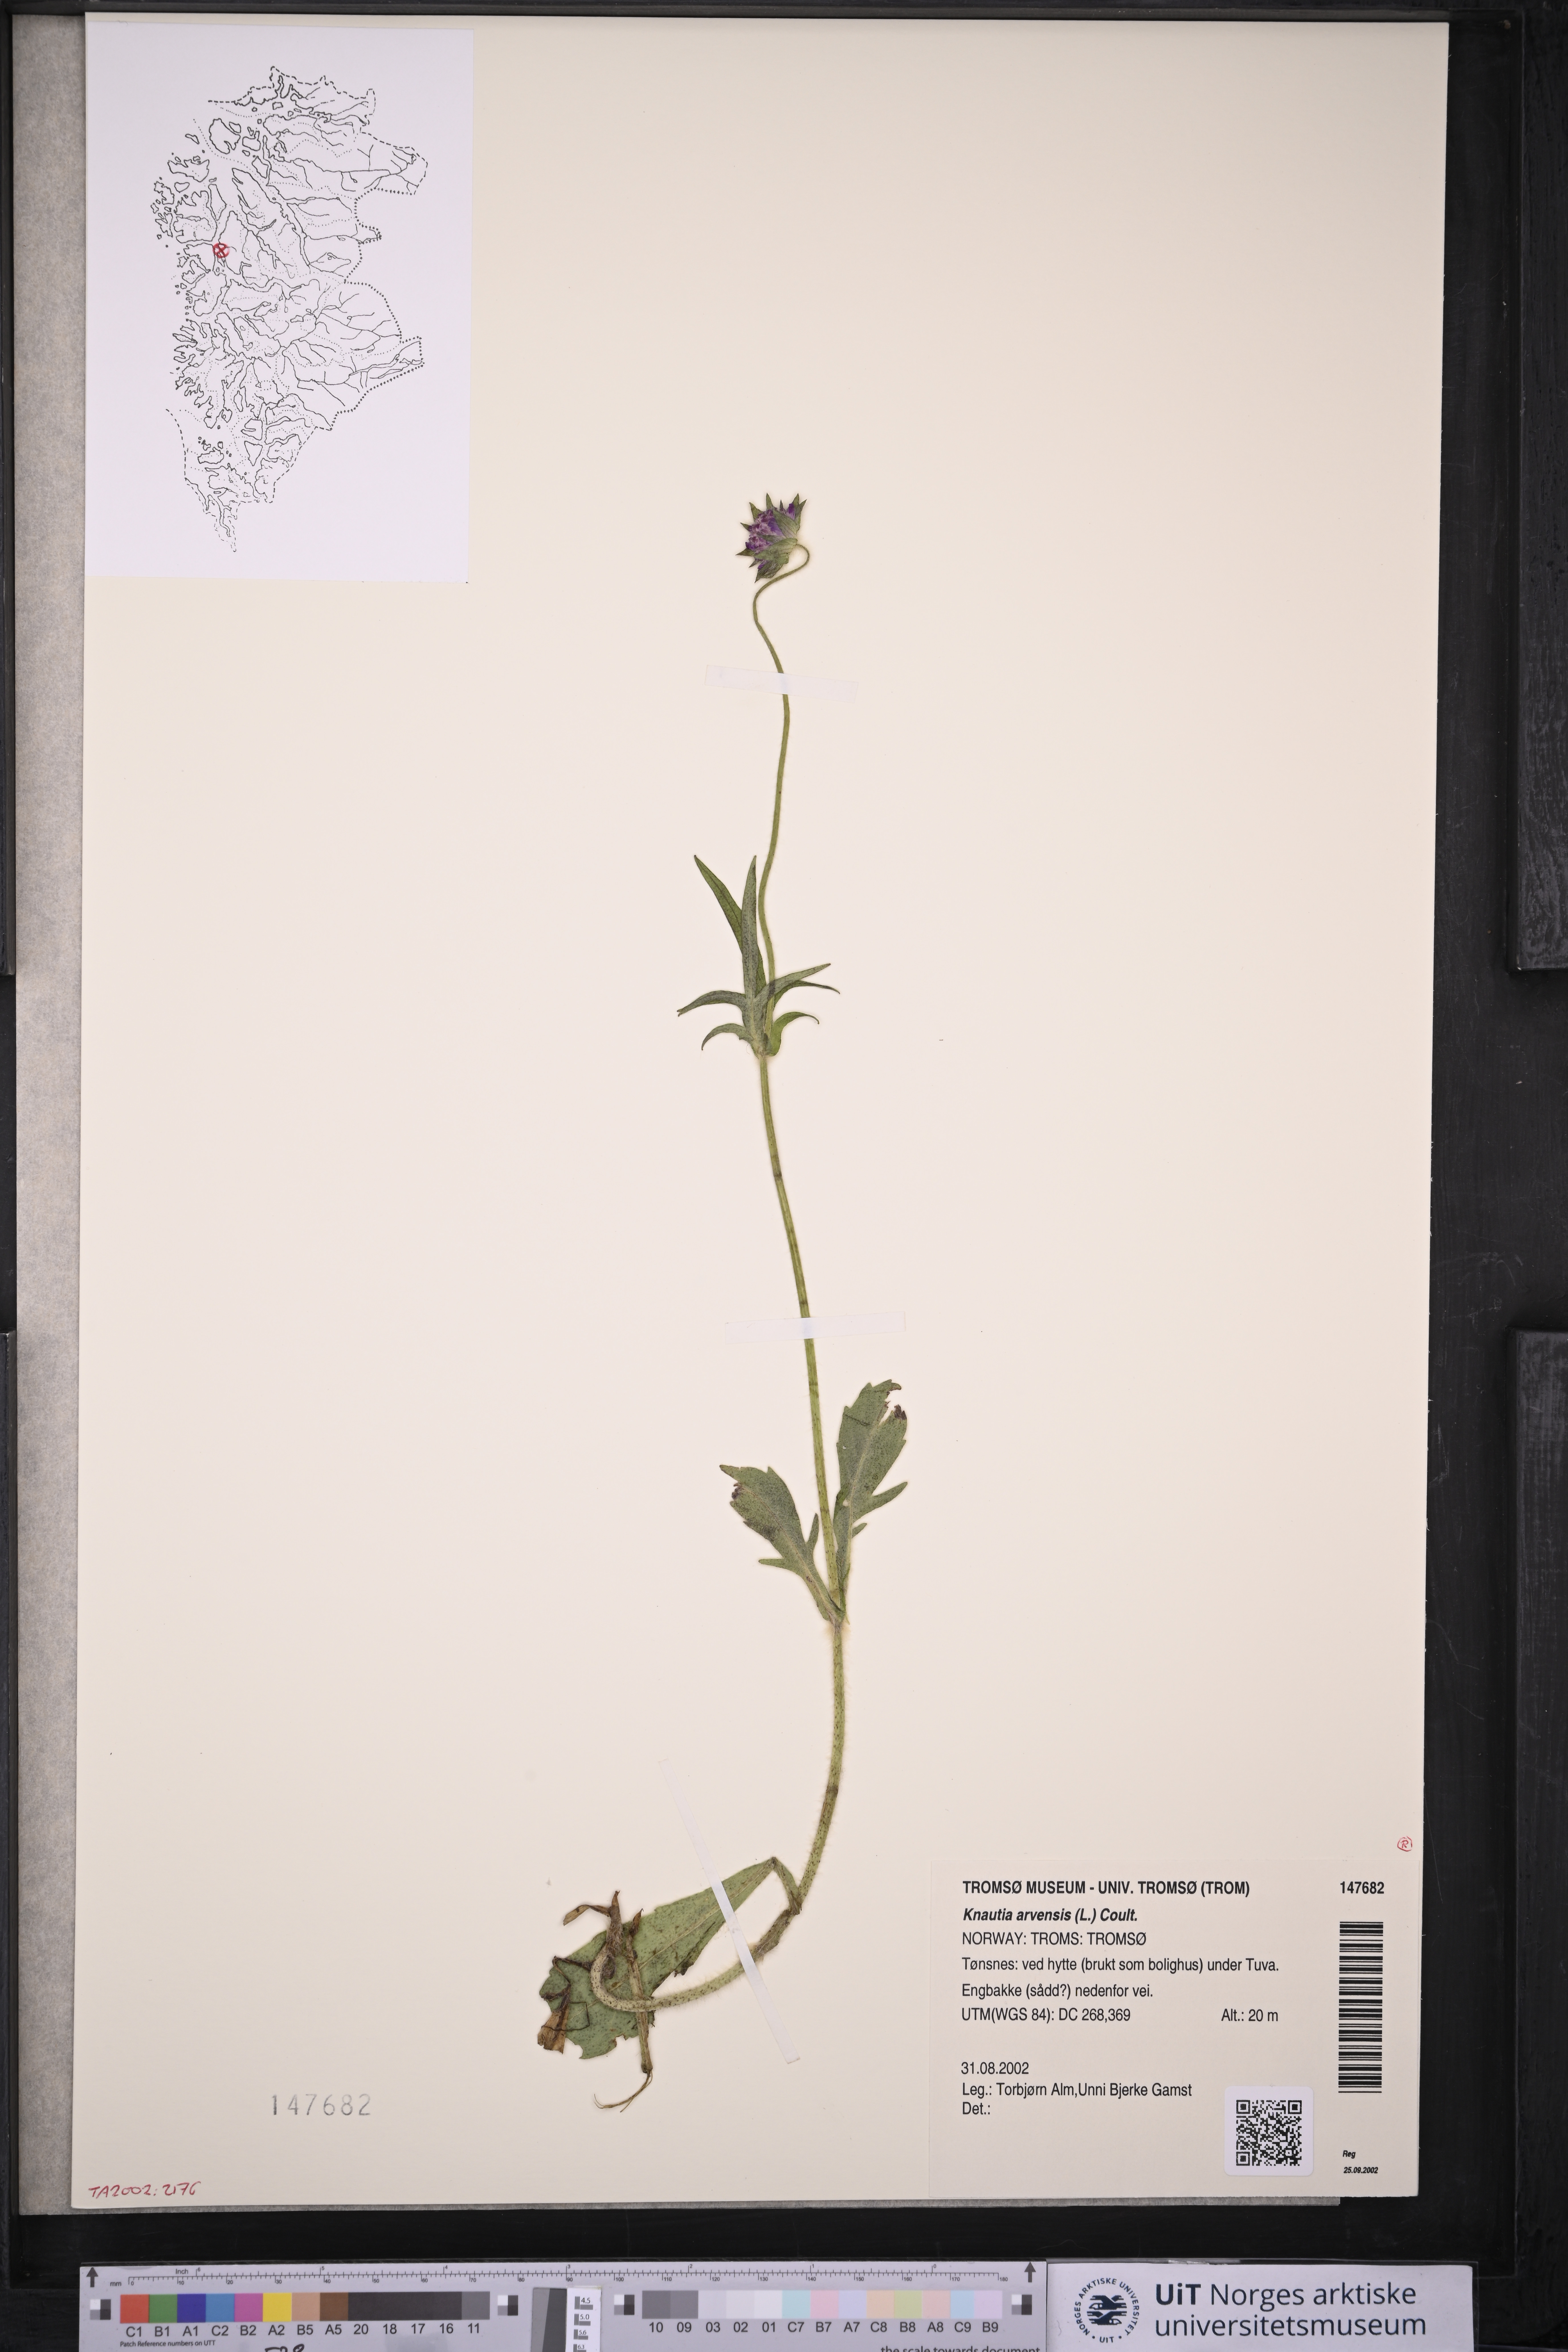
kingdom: Plantae
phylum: Tracheophyta
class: Magnoliopsida
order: Dipsacales
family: Caprifoliaceae
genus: Knautia
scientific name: Knautia arvensis
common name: Field scabiosa
